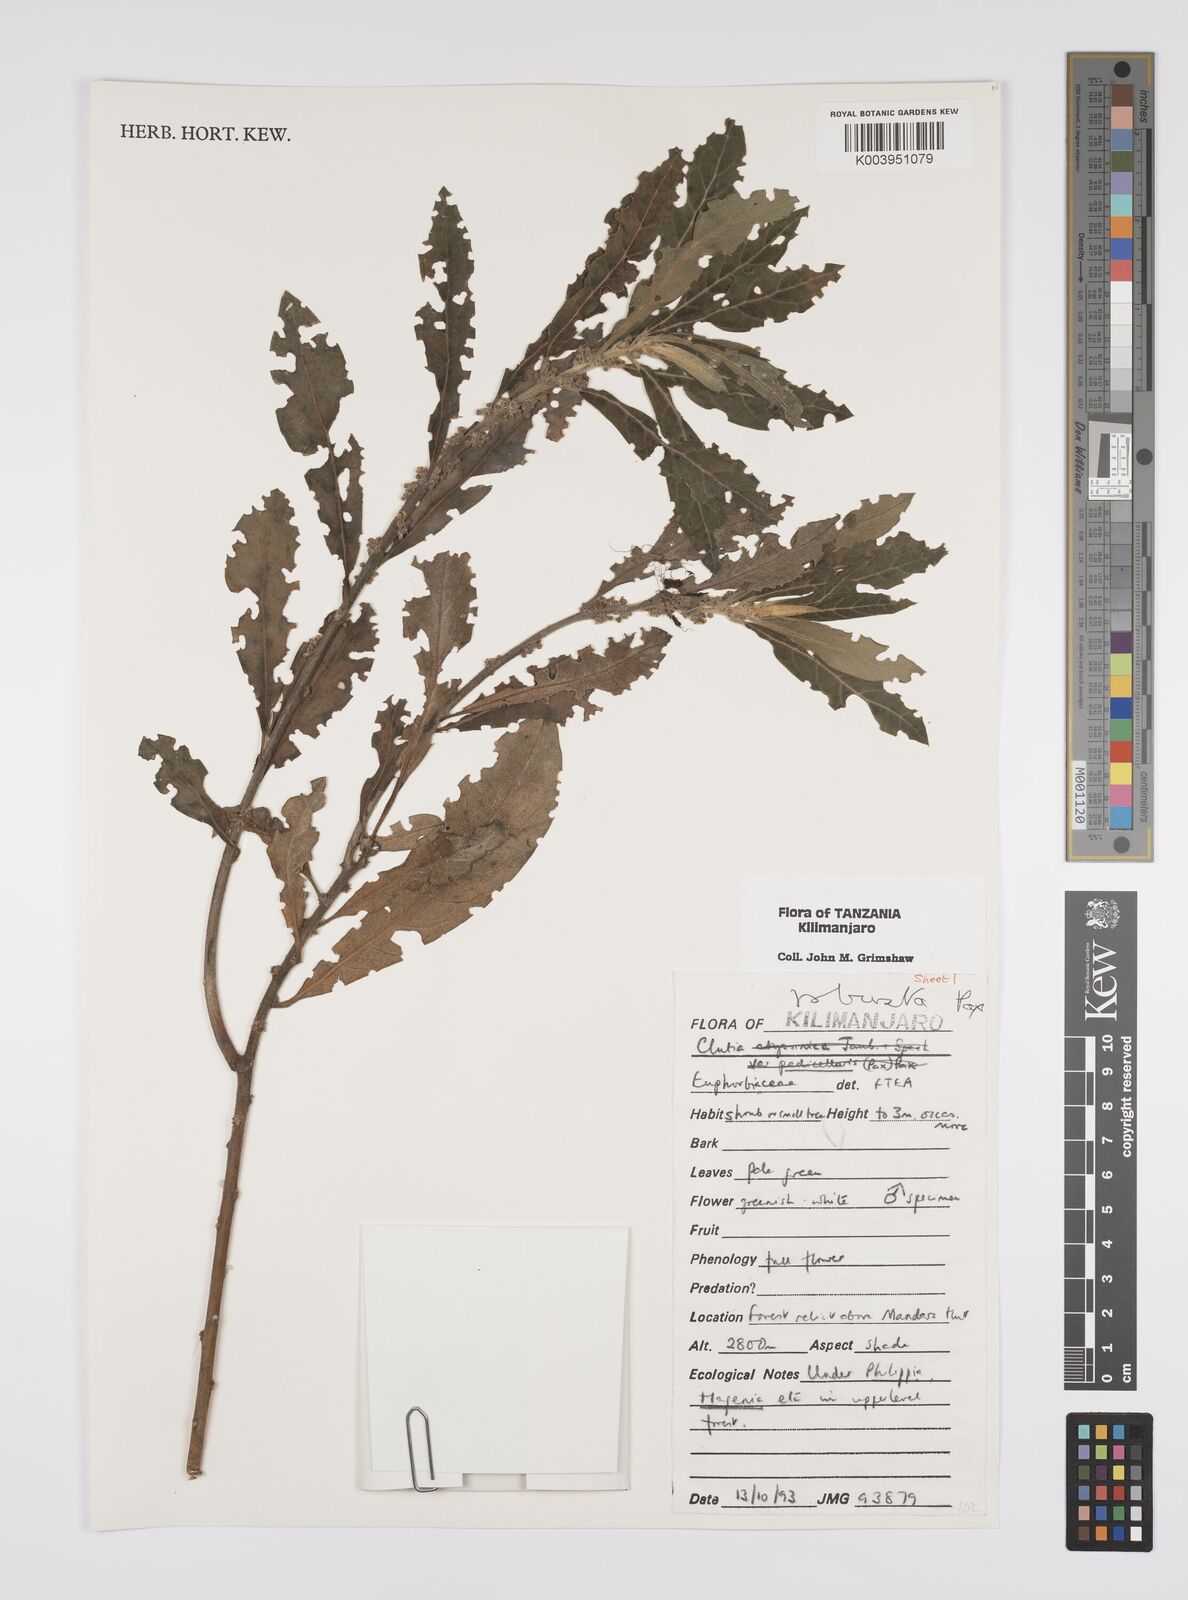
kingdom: Plantae
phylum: Tracheophyta
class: Magnoliopsida
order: Malpighiales
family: Peraceae
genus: Clutia
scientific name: Clutia kilimandscharica
